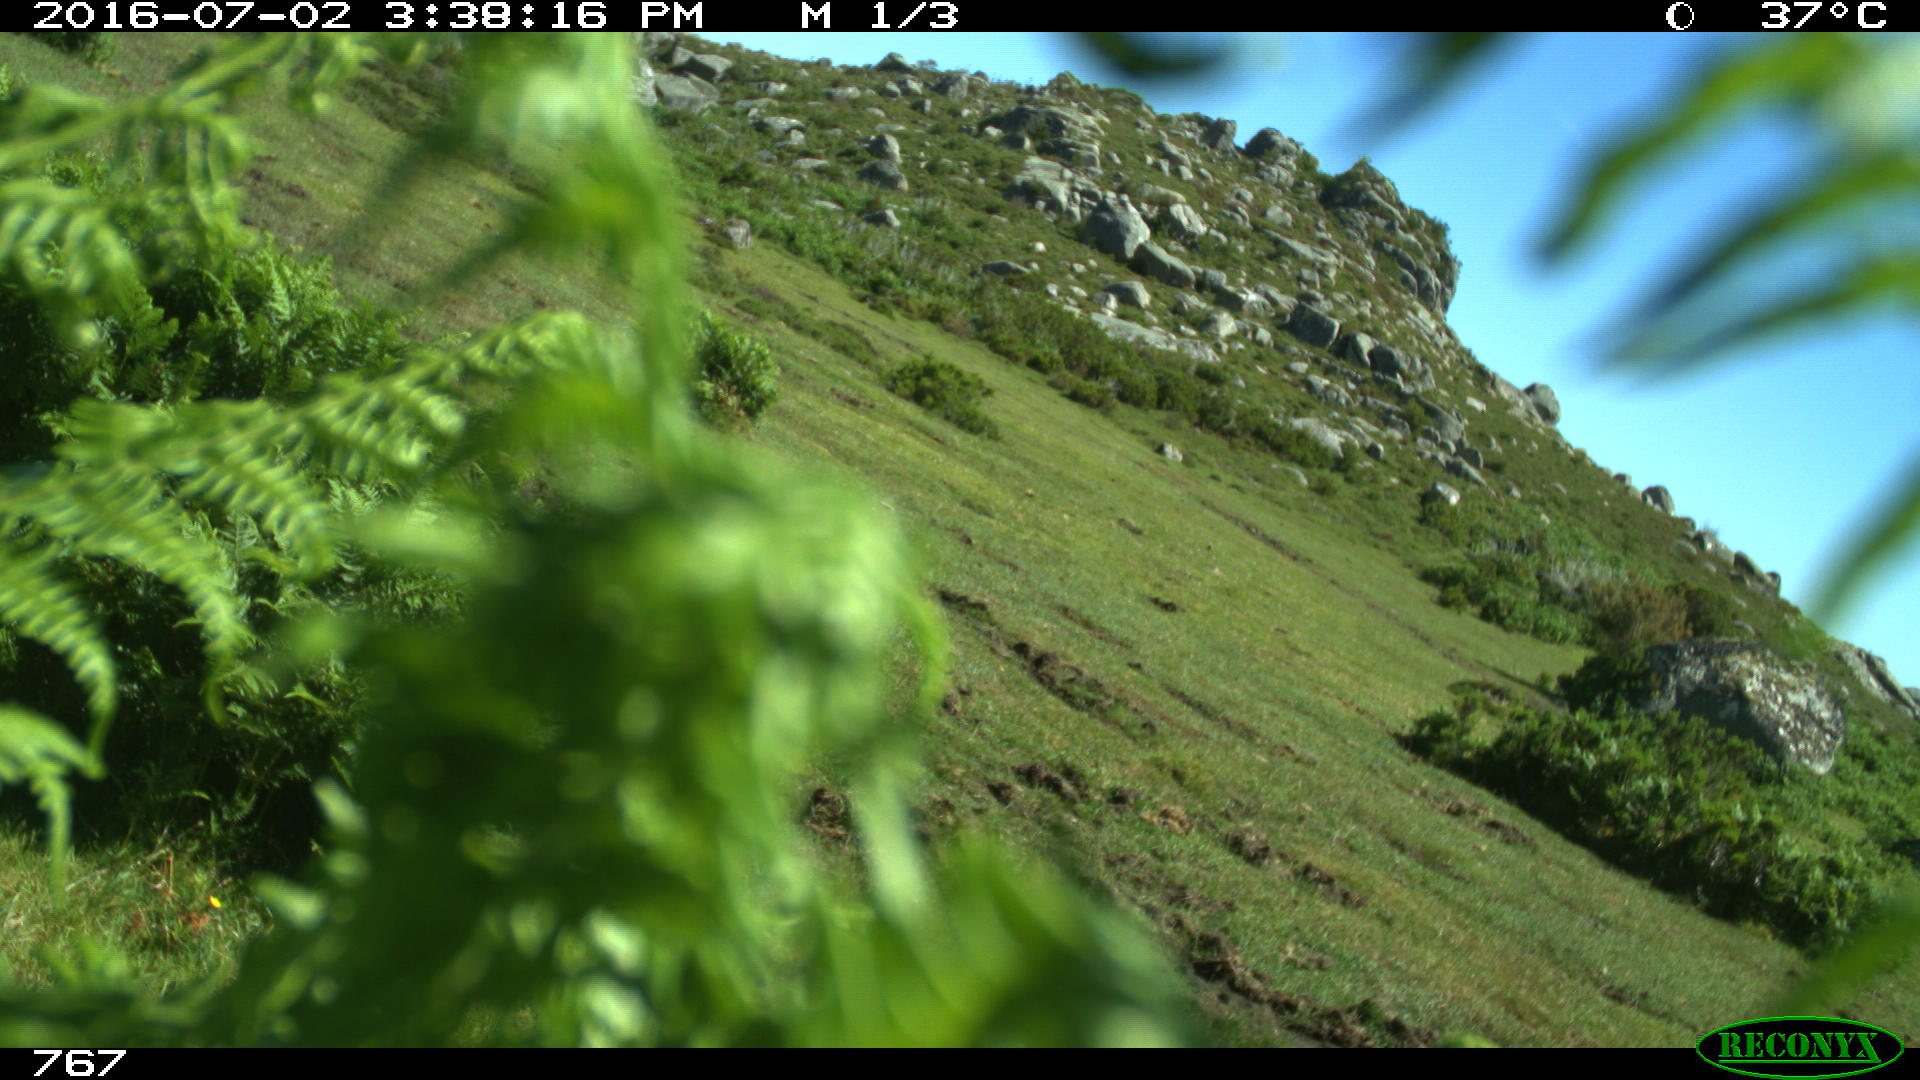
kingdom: Animalia
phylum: Chordata
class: Mammalia
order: Artiodactyla
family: Bovidae
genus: Bos
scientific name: Bos taurus
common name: Domesticated cattle
